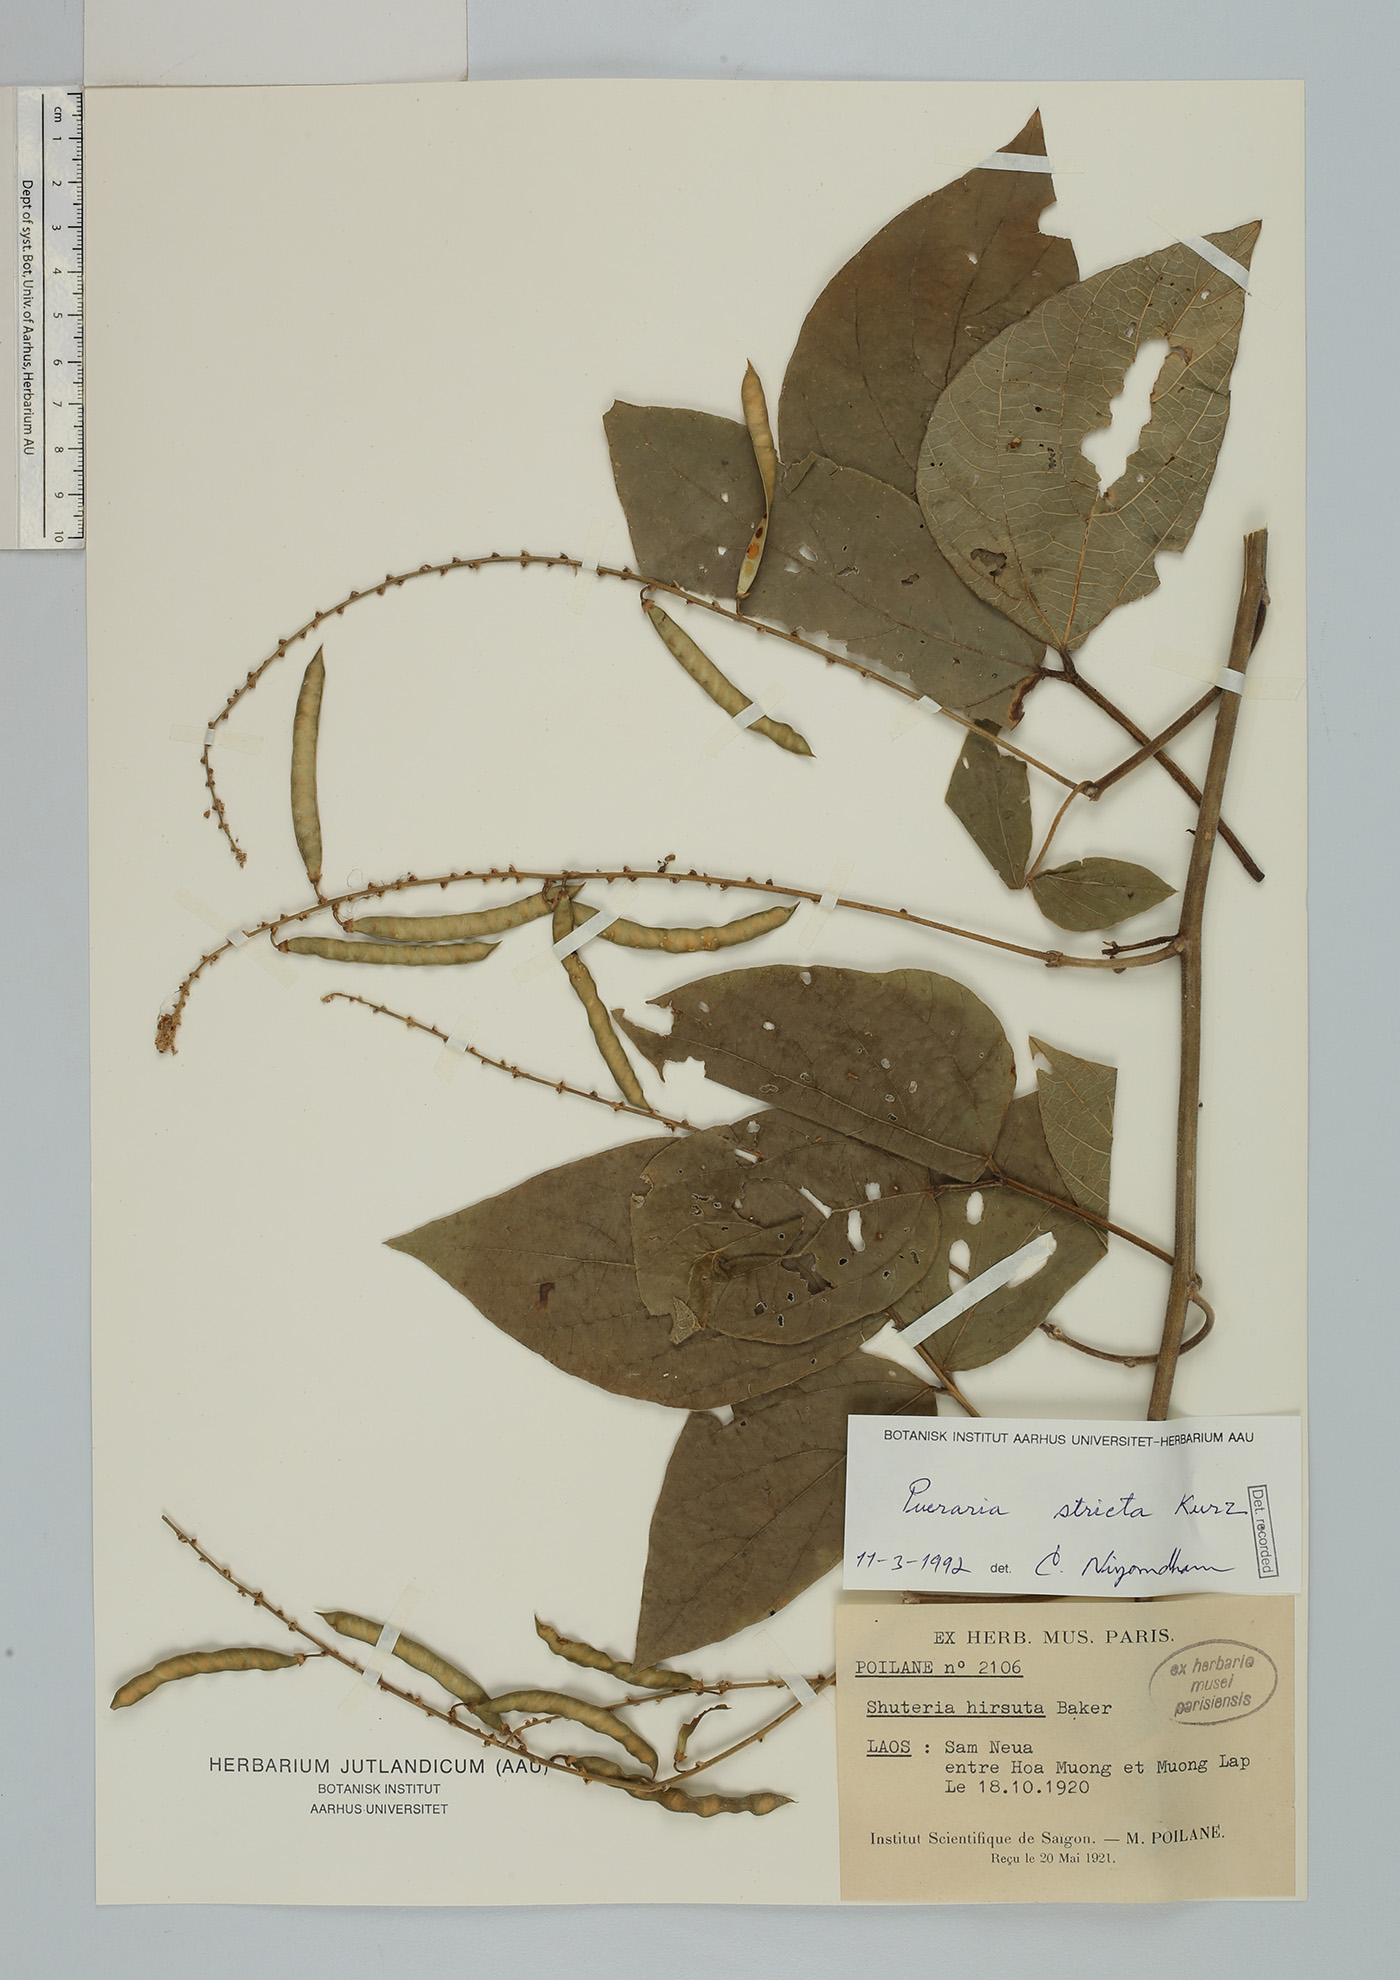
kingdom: Plantae
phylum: Tracheophyta
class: Magnoliopsida
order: Fabales
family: Fabaceae
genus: Teyleria
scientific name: Teyleria stricta
